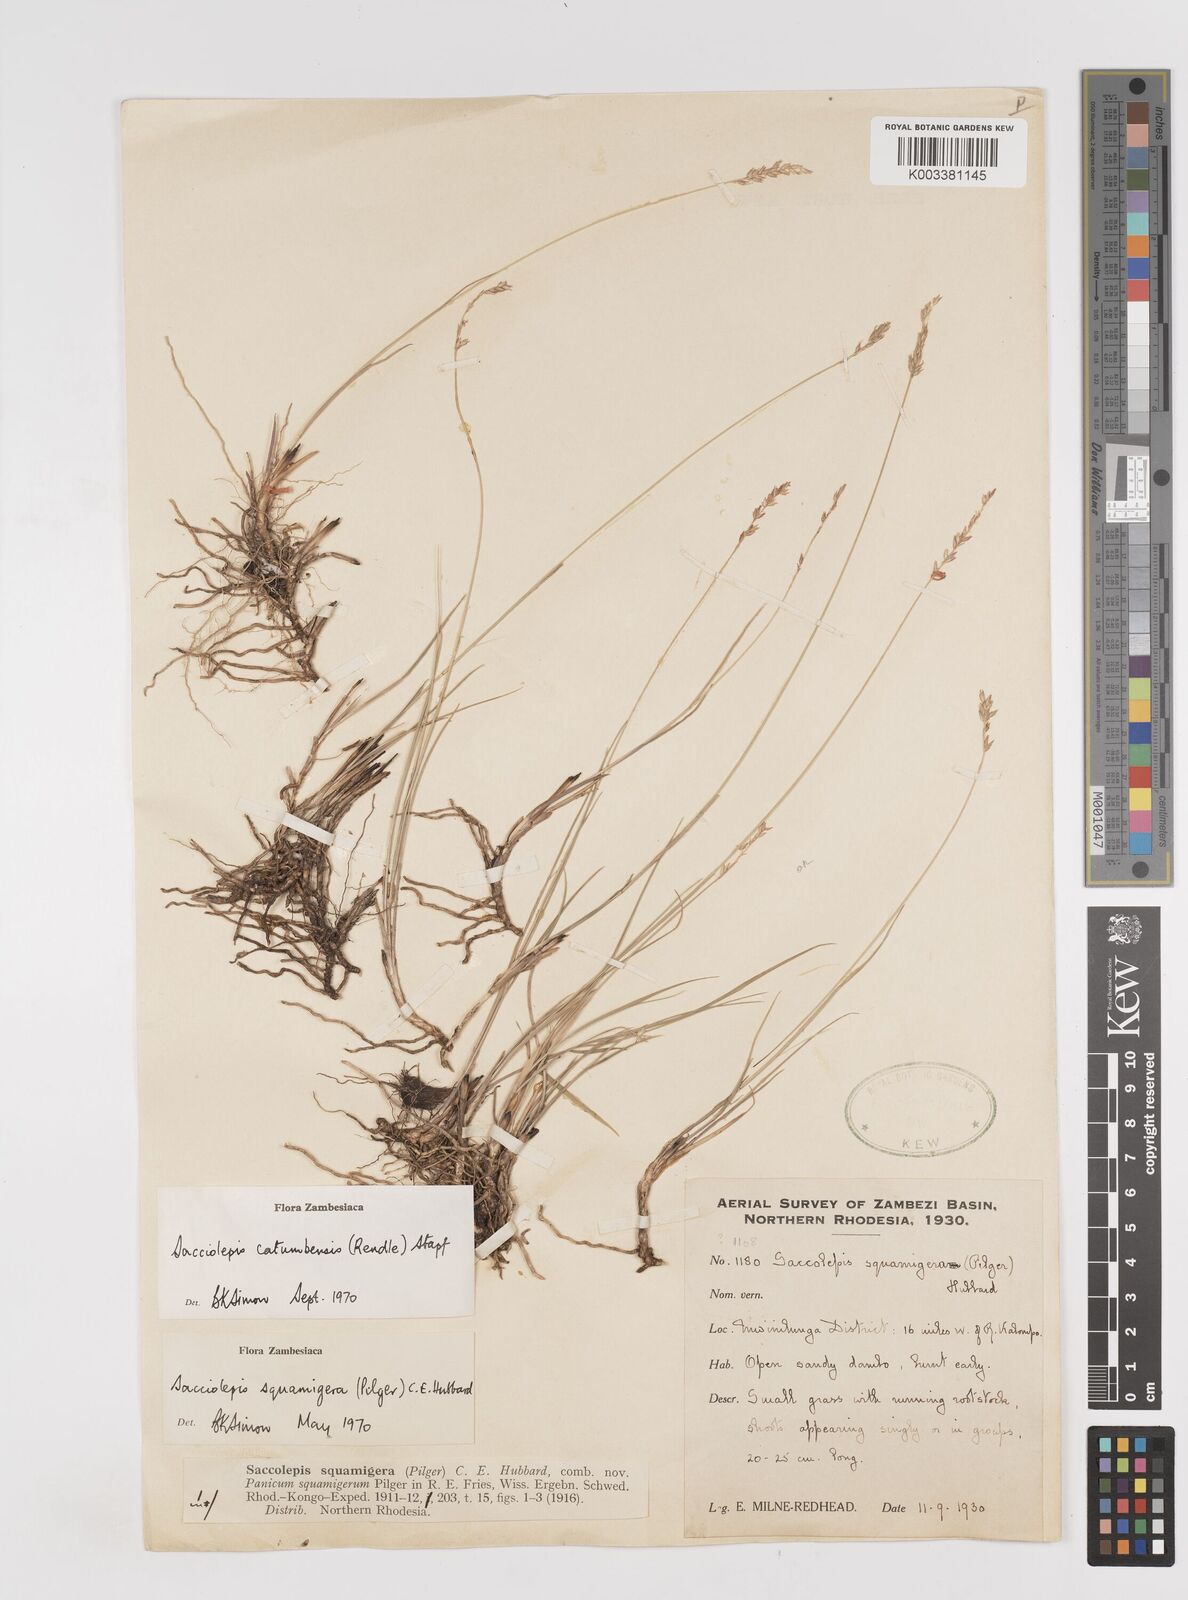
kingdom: Plantae
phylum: Tracheophyta
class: Liliopsida
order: Poales
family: Poaceae
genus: Sacciolepis
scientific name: Sacciolepis catumbensis
